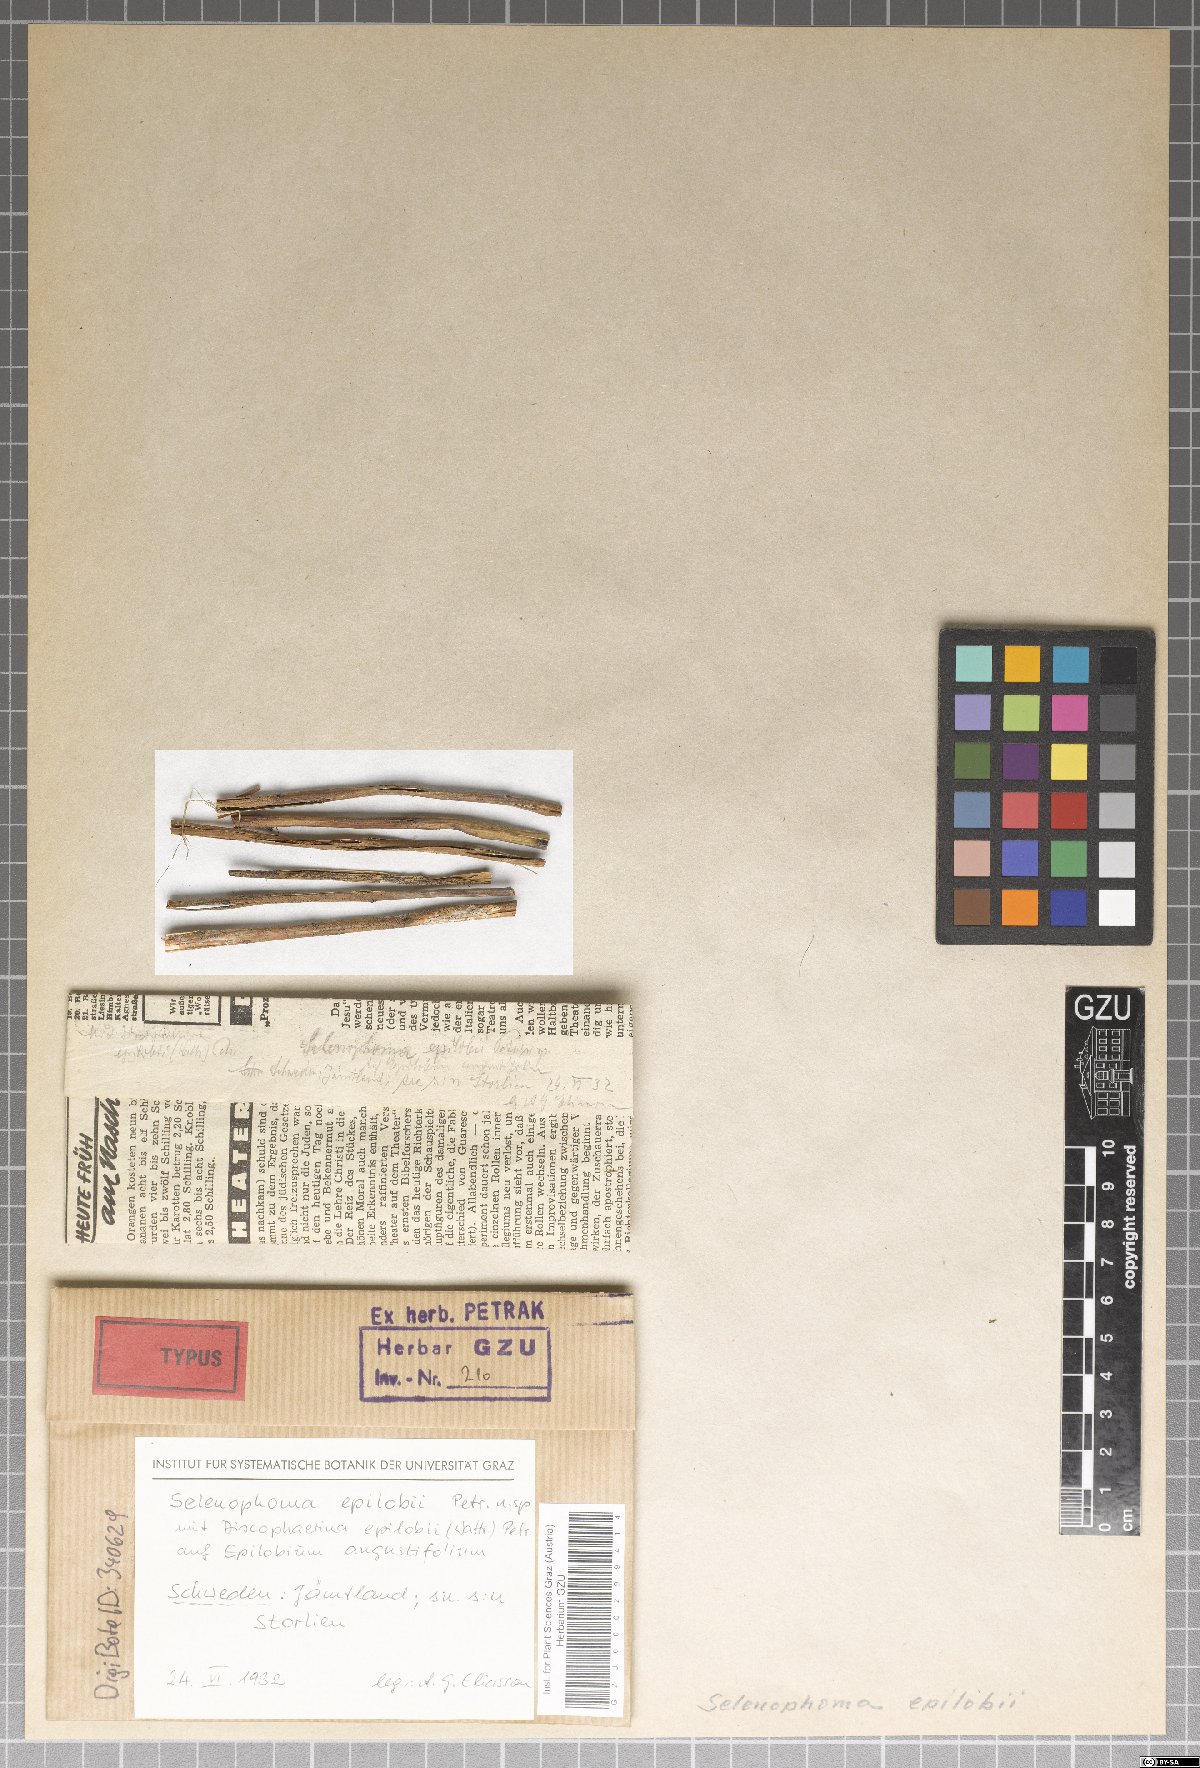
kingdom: Fungi
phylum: Ascomycota
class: Dothideomycetes
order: Dothideales
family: Saccotheciaceae
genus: Selenophoma
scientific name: Selenophoma epilobii
